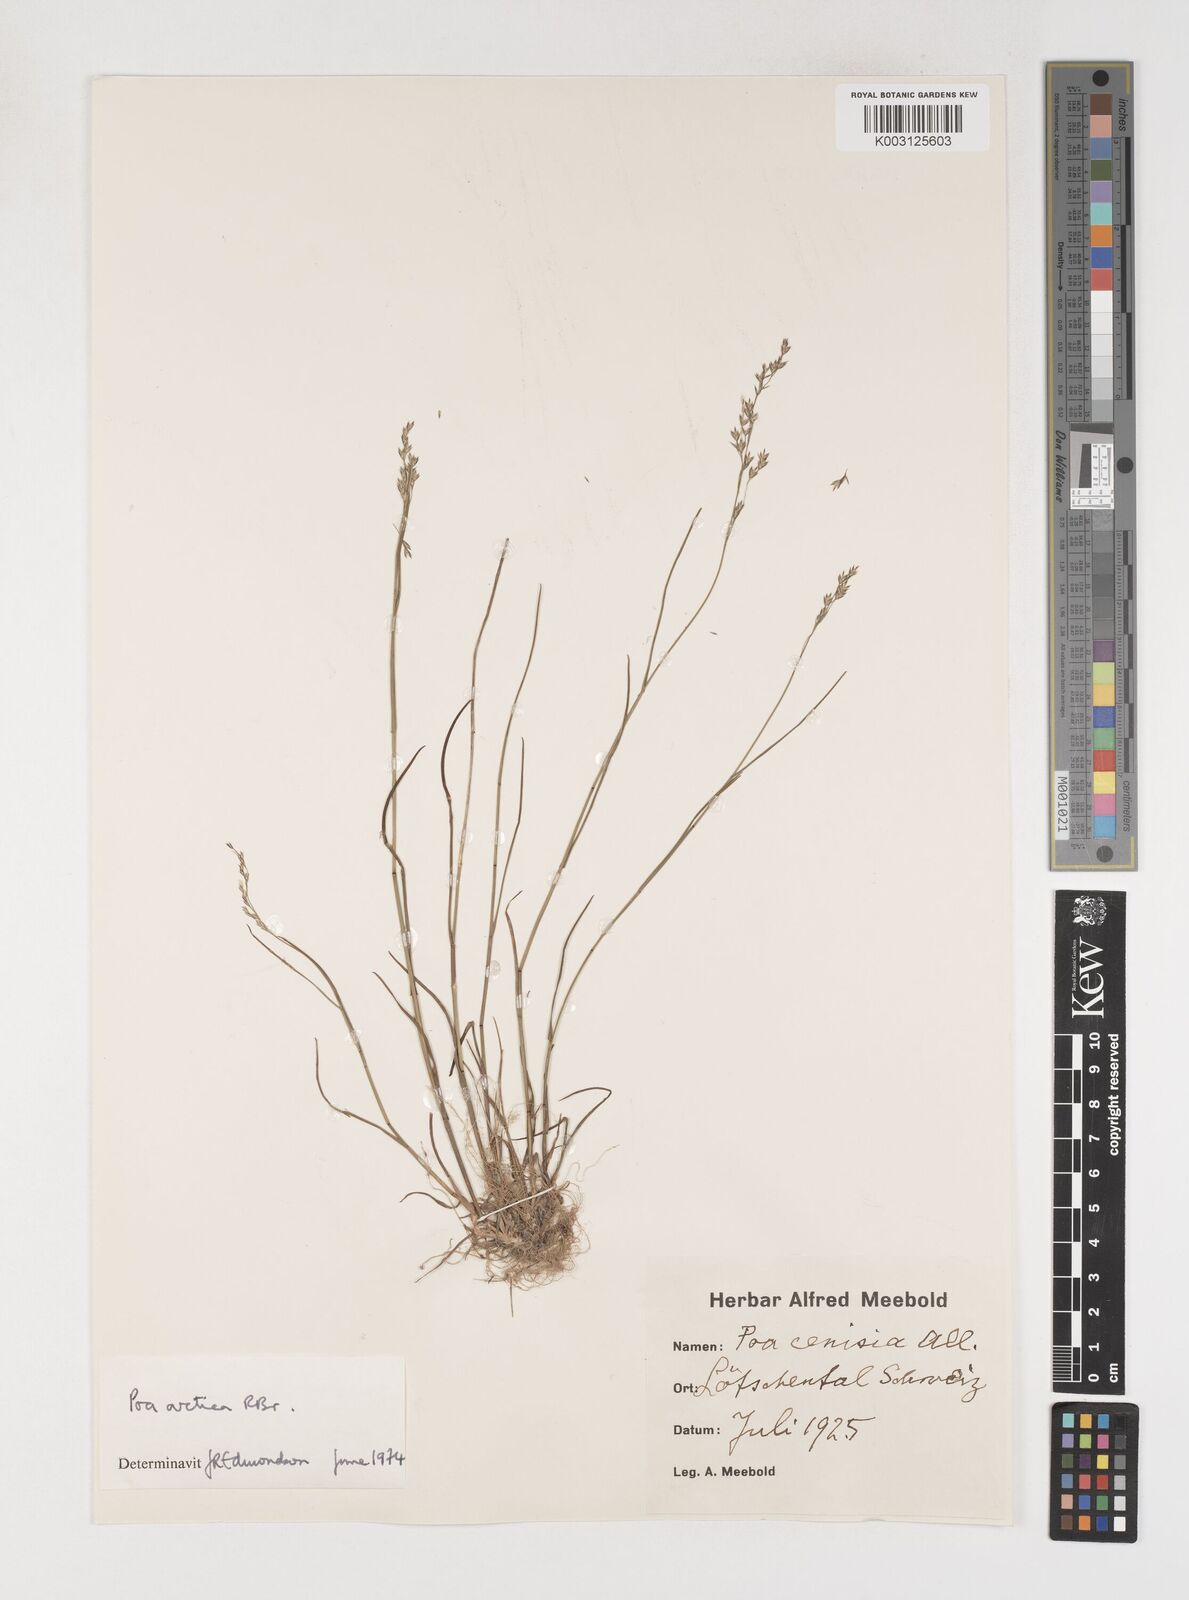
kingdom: Plantae
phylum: Tracheophyta
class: Liliopsida
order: Poales
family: Poaceae
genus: Poa
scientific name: Poa arctica
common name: Arctic bluegrass
